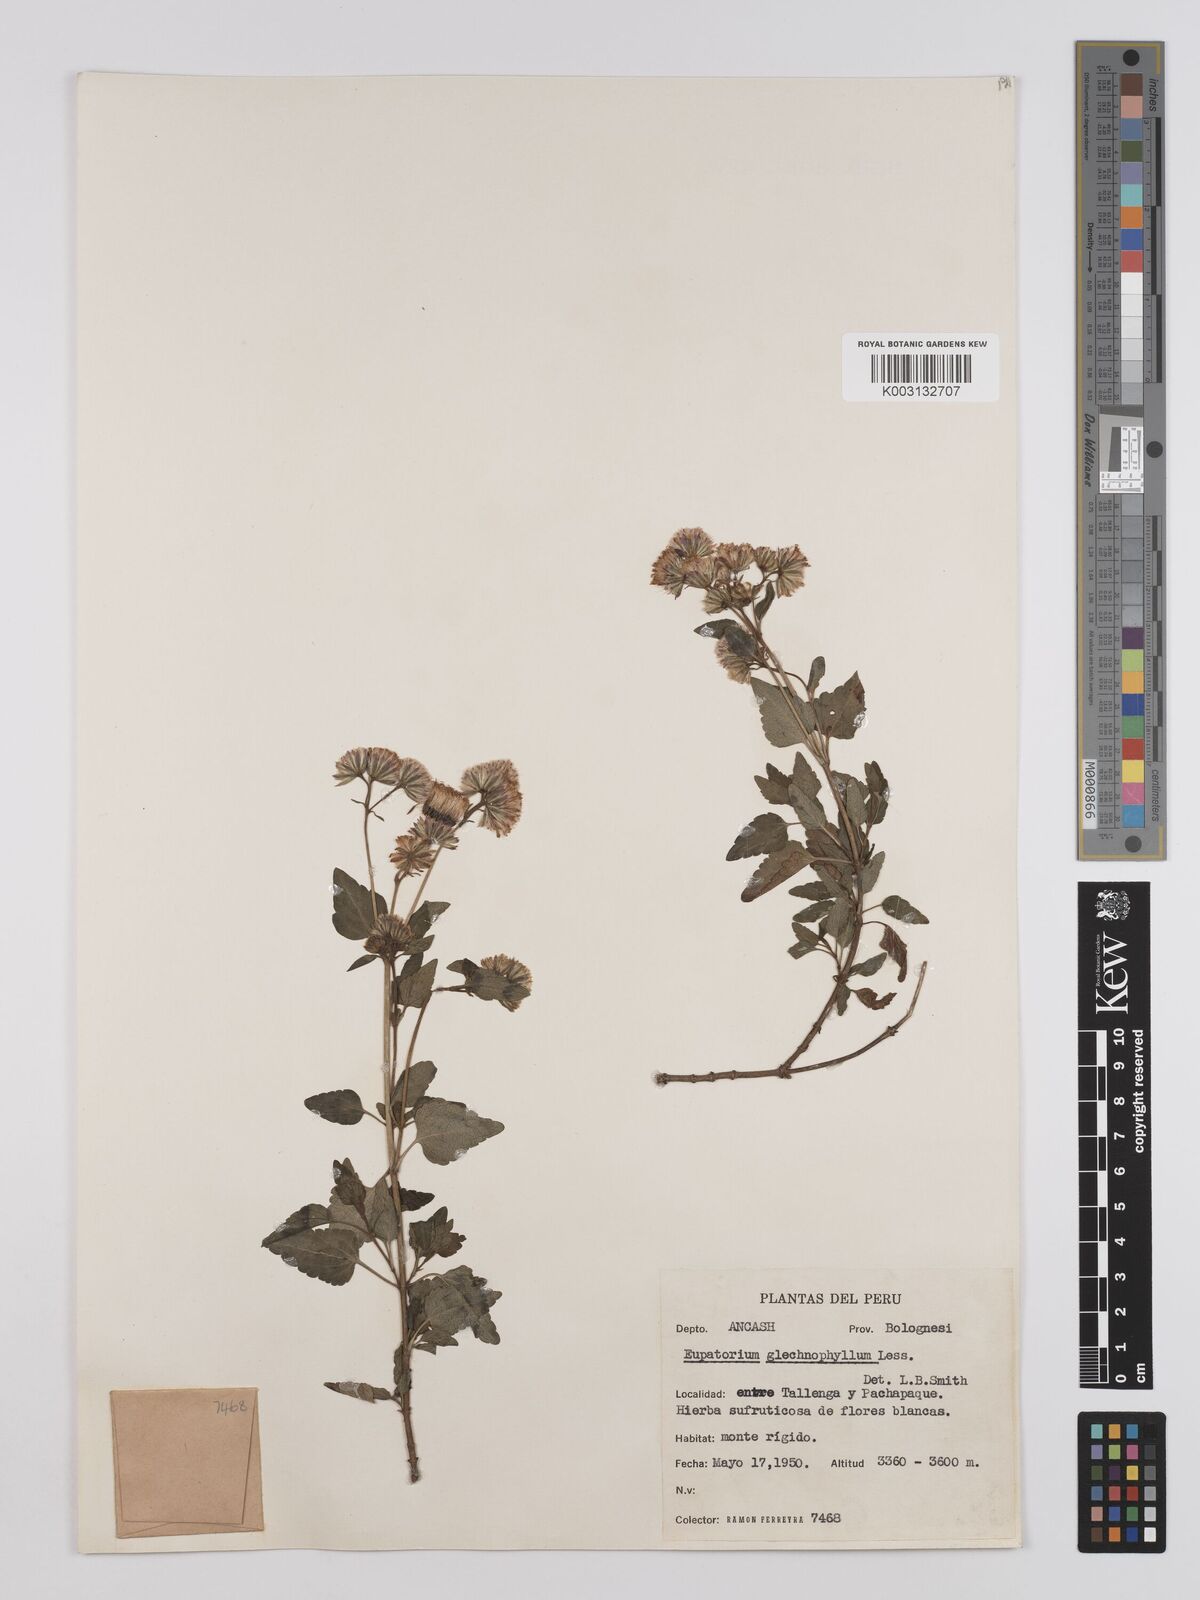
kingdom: Plantae
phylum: Tracheophyta
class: Magnoliopsida
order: Asterales
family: Asteraceae
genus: Ageratina
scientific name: Ageratina glechonophylla
